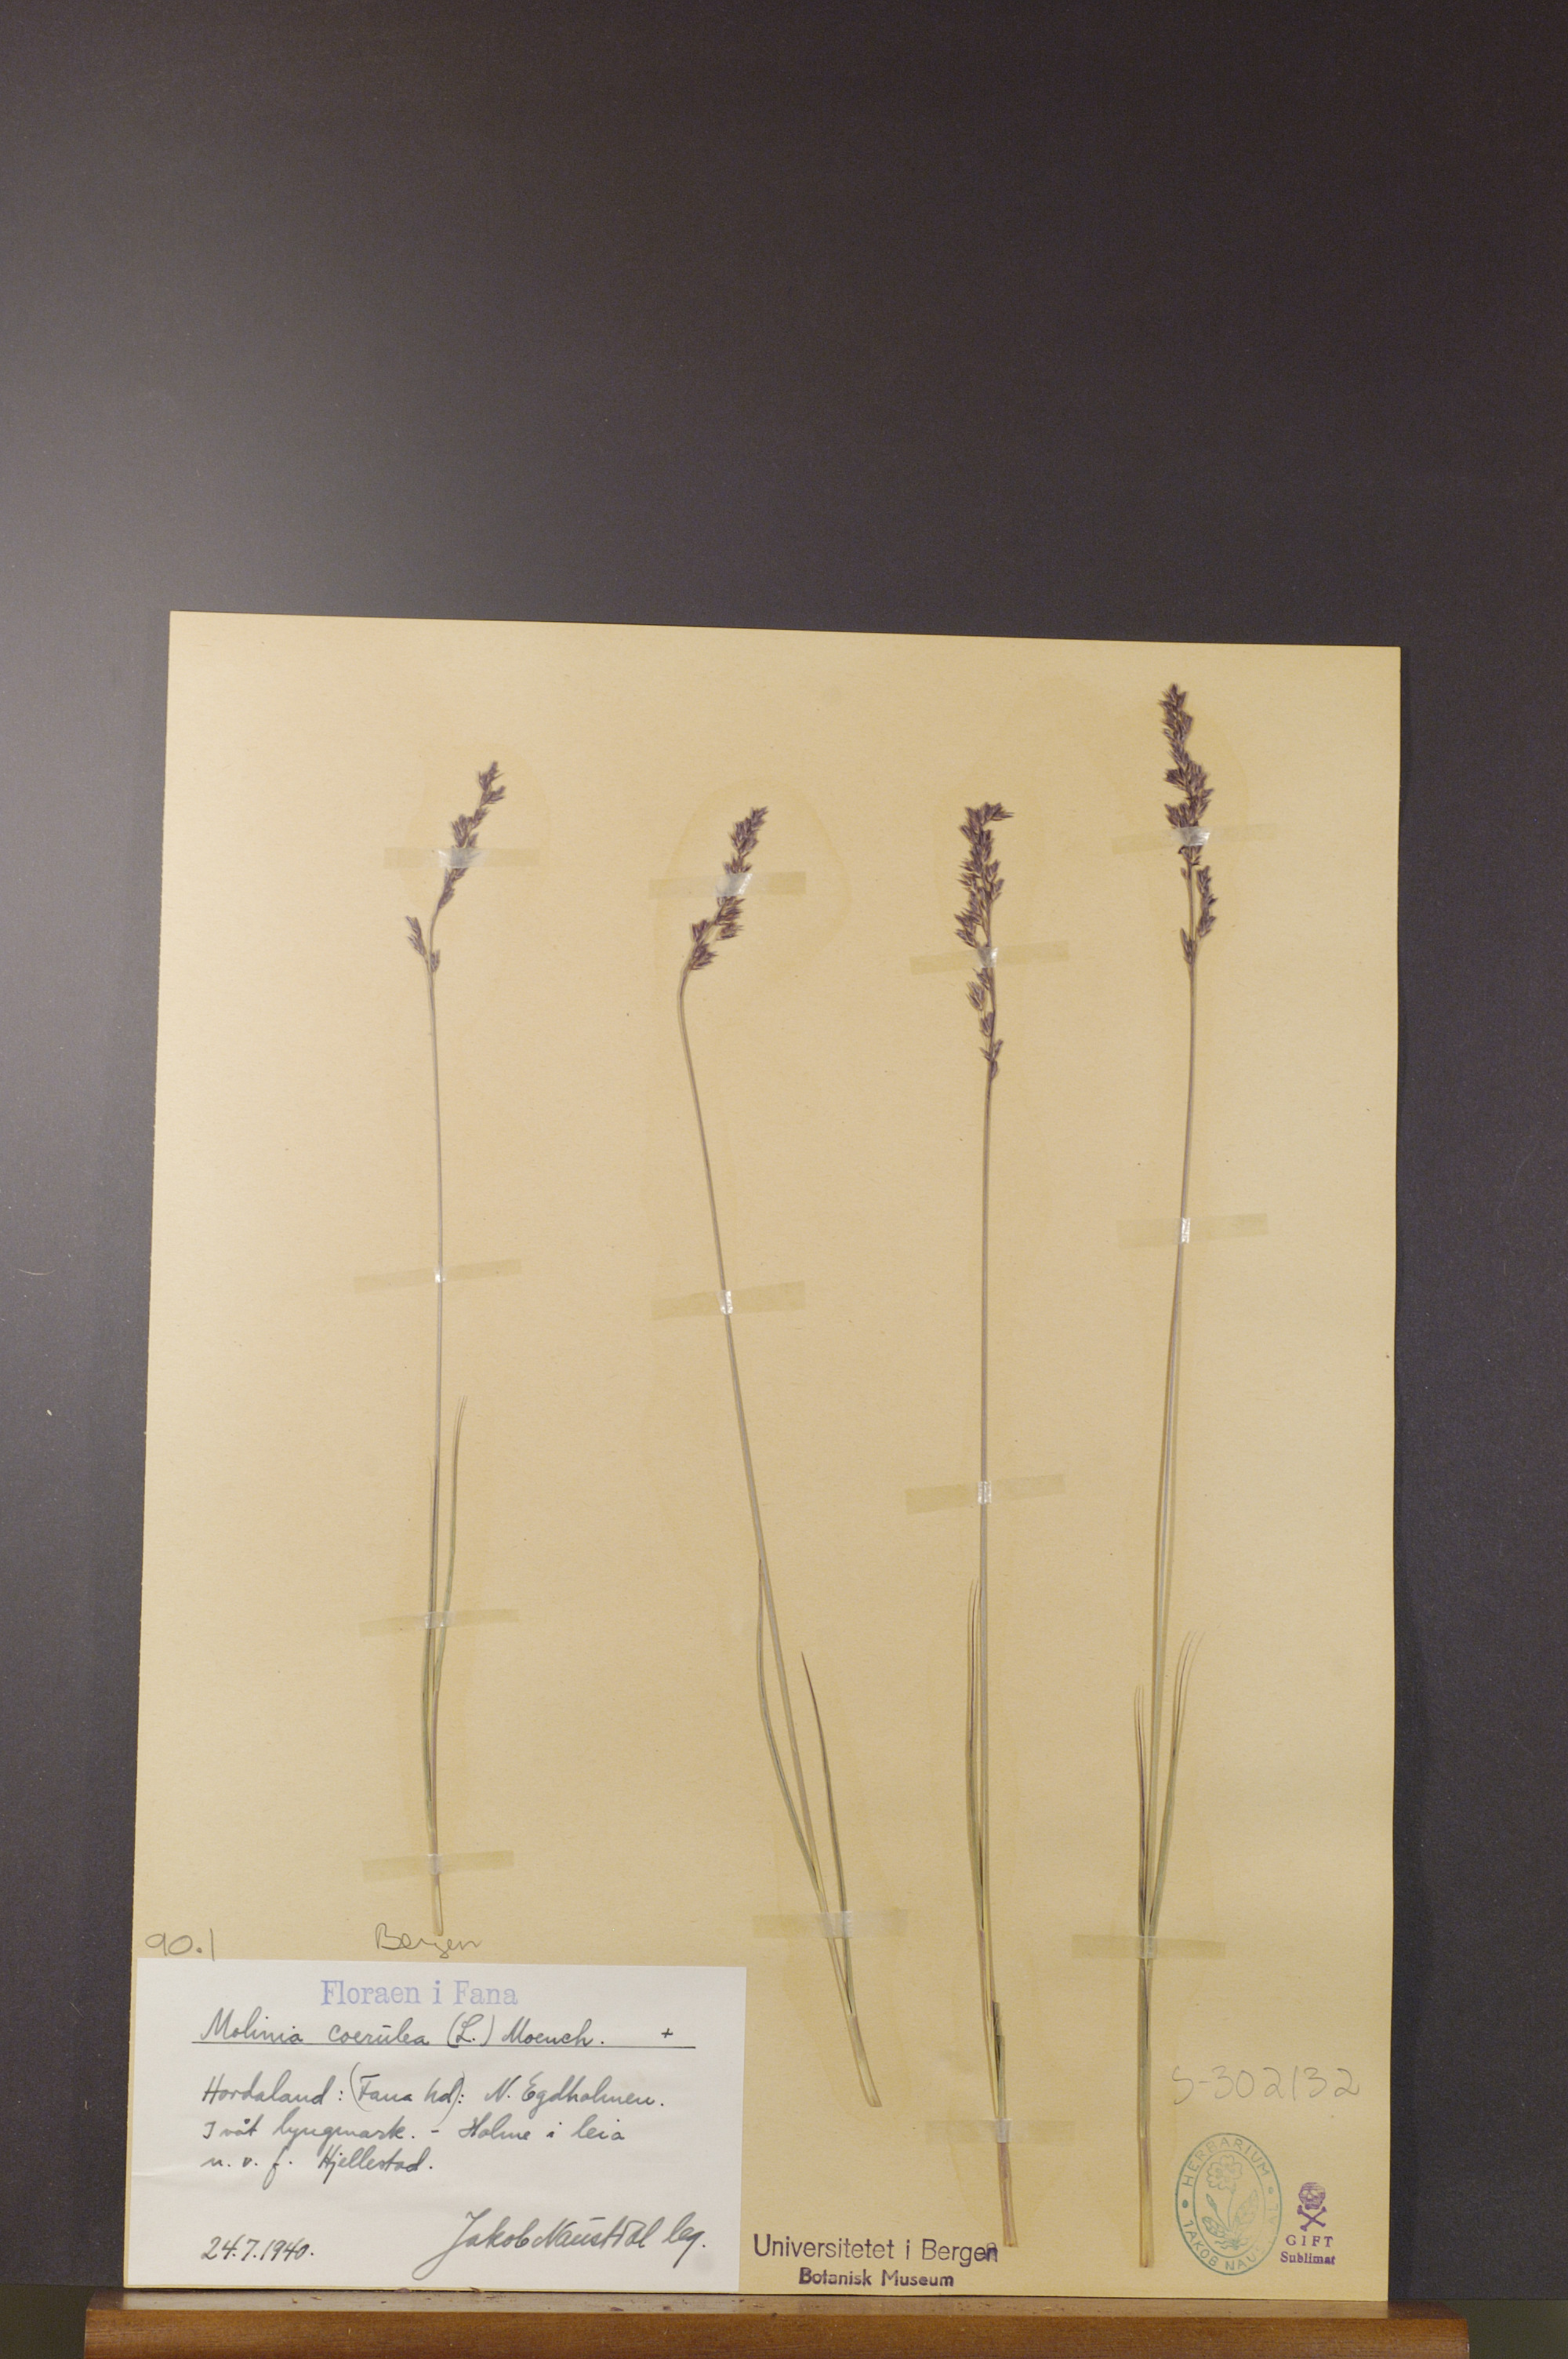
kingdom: Plantae
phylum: Tracheophyta
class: Liliopsida
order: Poales
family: Poaceae
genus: Molinia
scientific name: Molinia caerulea
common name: Purple moor-grass
